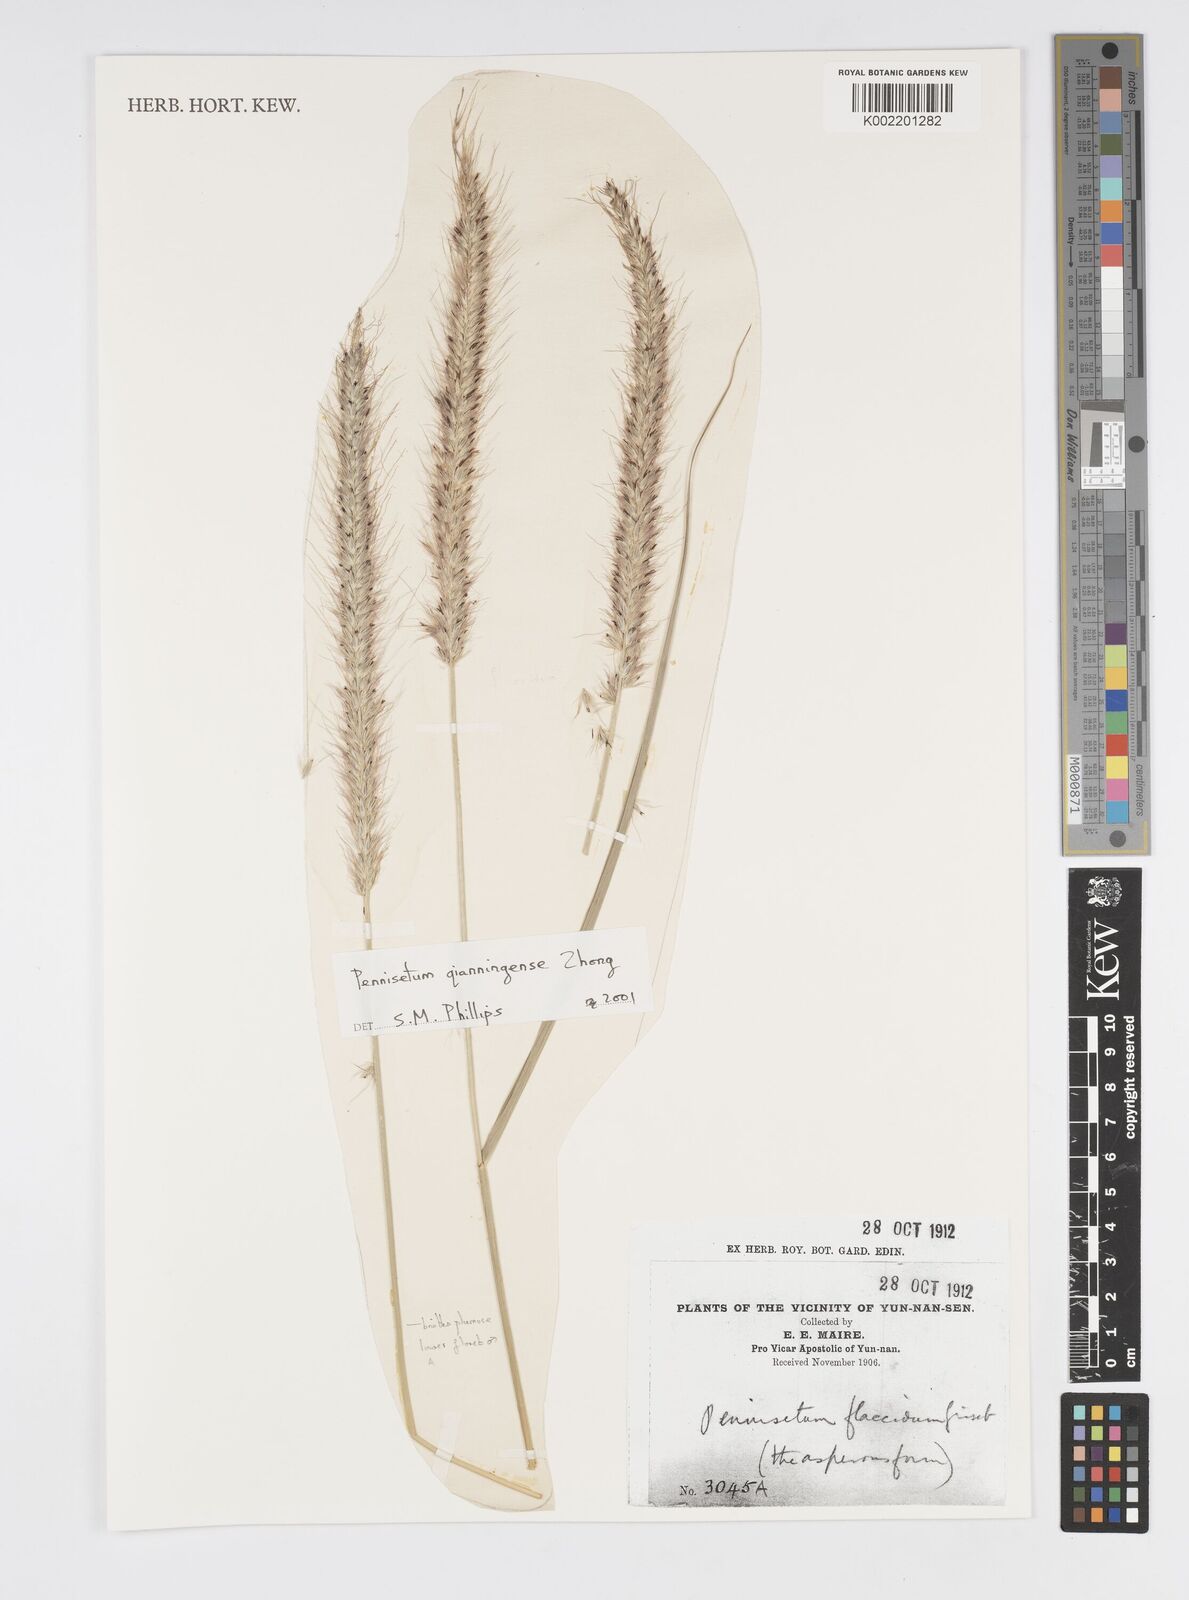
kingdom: Plantae
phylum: Tracheophyta
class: Liliopsida
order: Poales
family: Poaceae
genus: Cenchrus
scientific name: Cenchrus qianningensis
